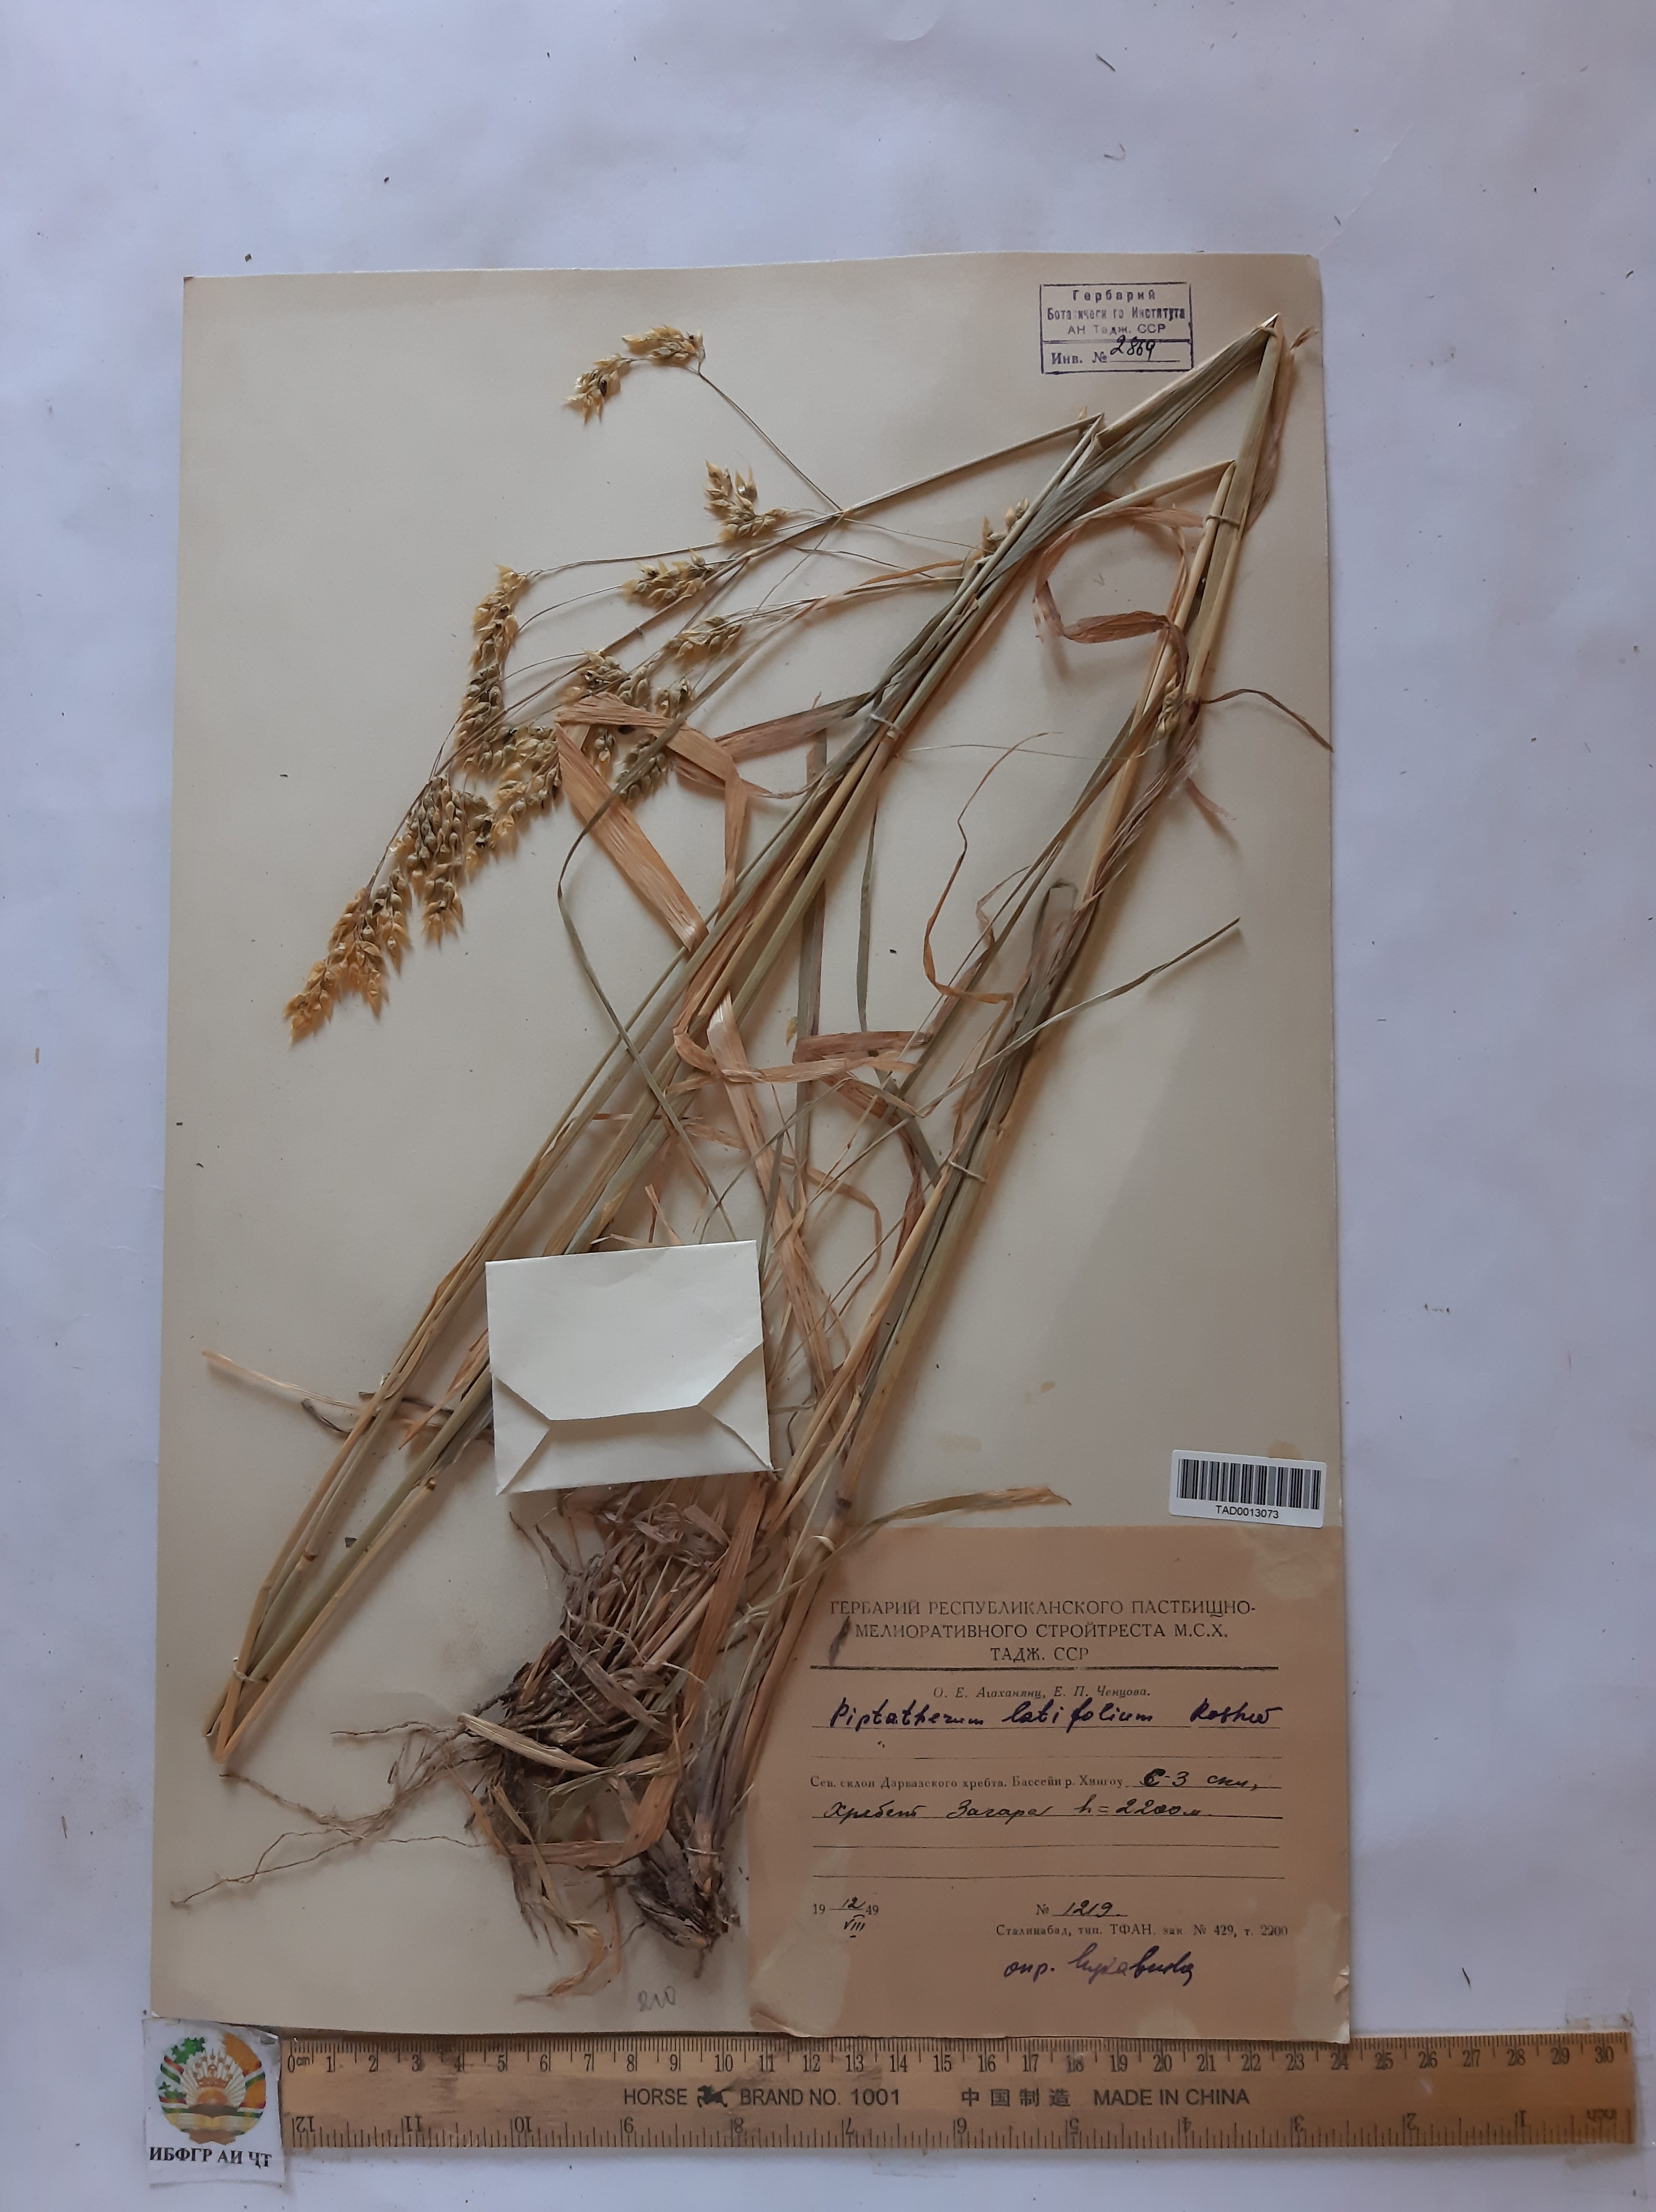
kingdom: Plantae
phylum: Tracheophyta
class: Liliopsida
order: Poales
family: Poaceae
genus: Piptatherum
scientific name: Piptatherum laterale
